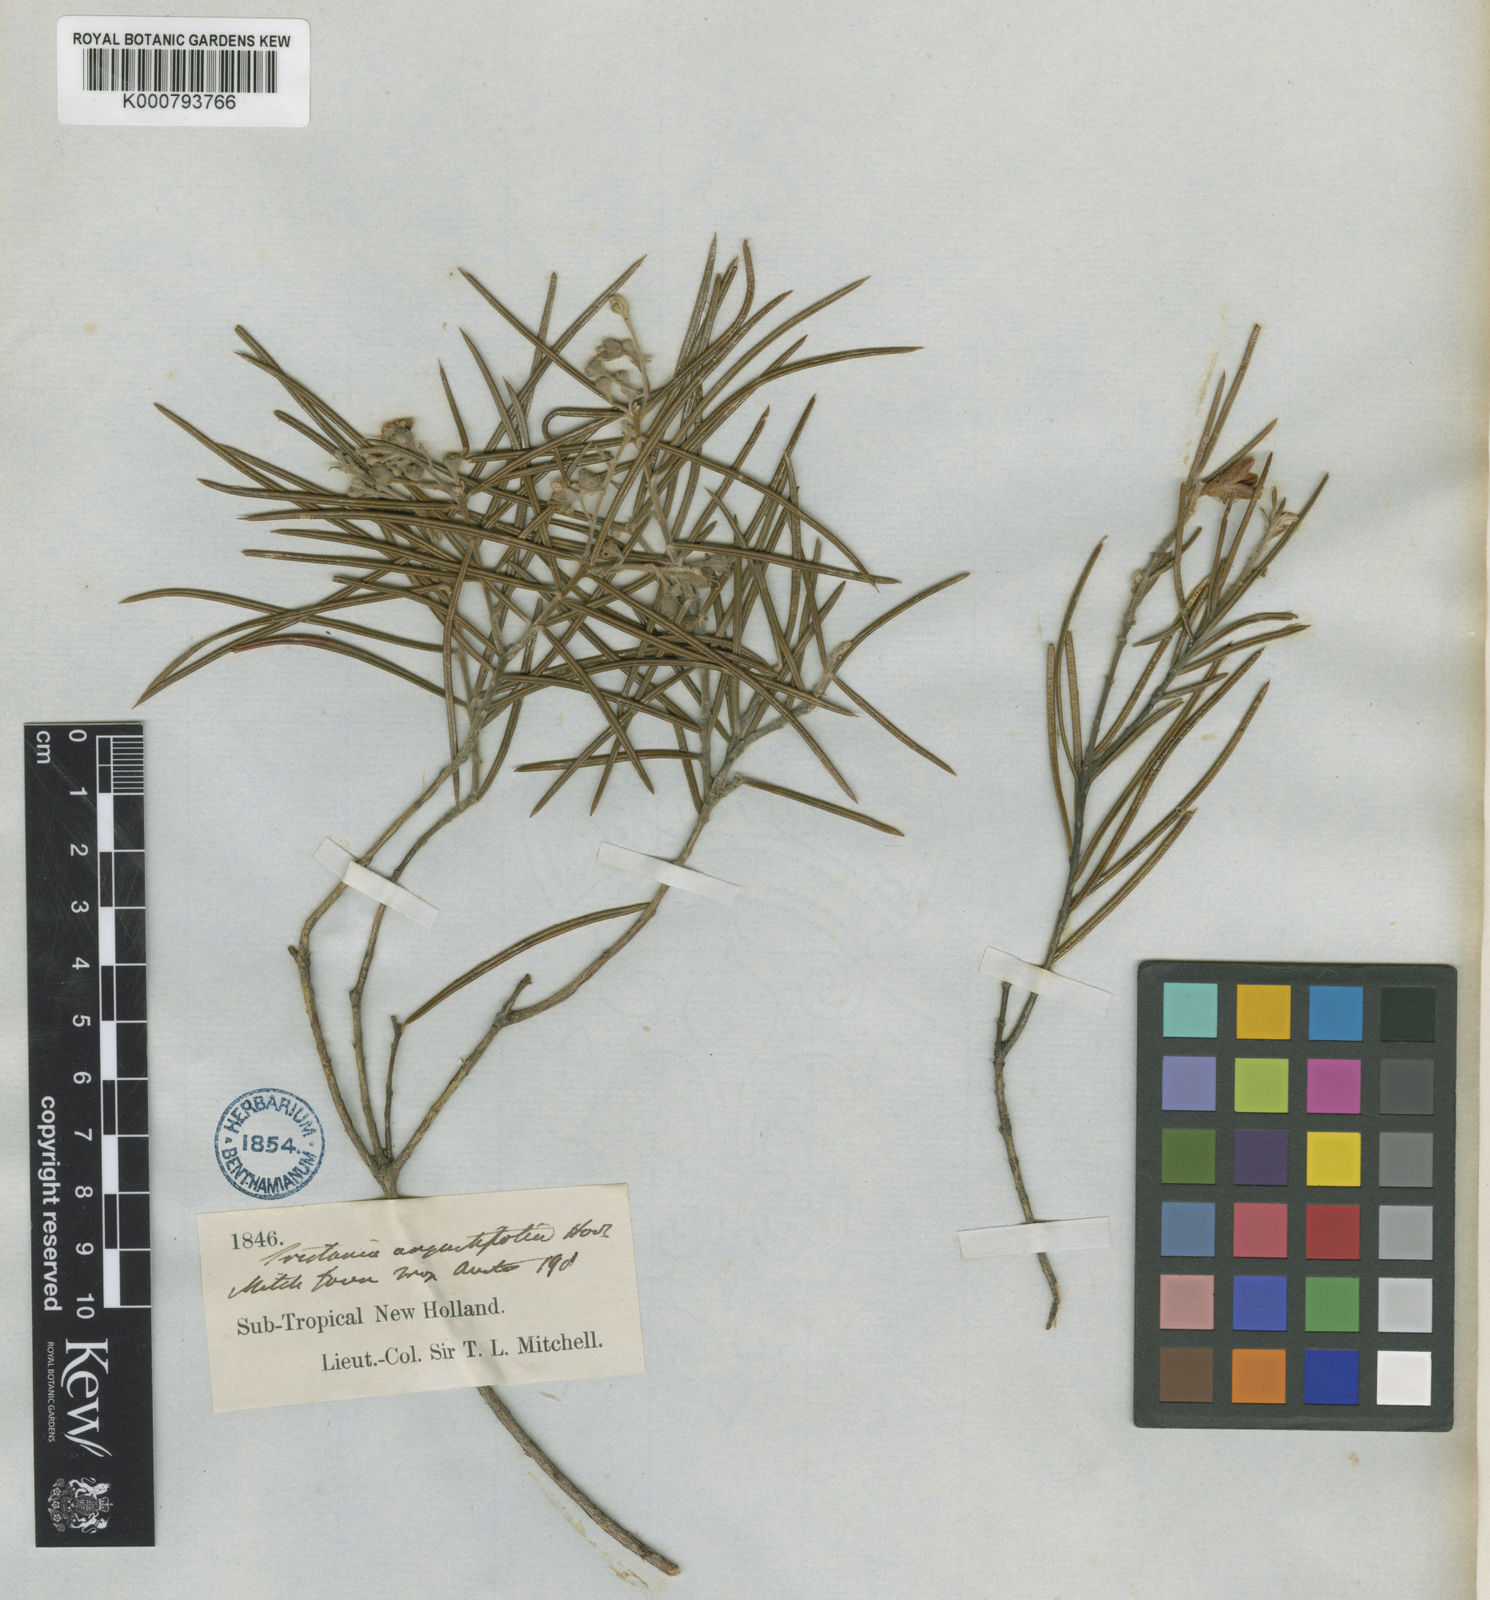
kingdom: Plantae
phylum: Tracheophyta
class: Magnoliopsida
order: Myrtales
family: Myrtaceae
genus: Lysicarpus
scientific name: Lysicarpus angustifolius
